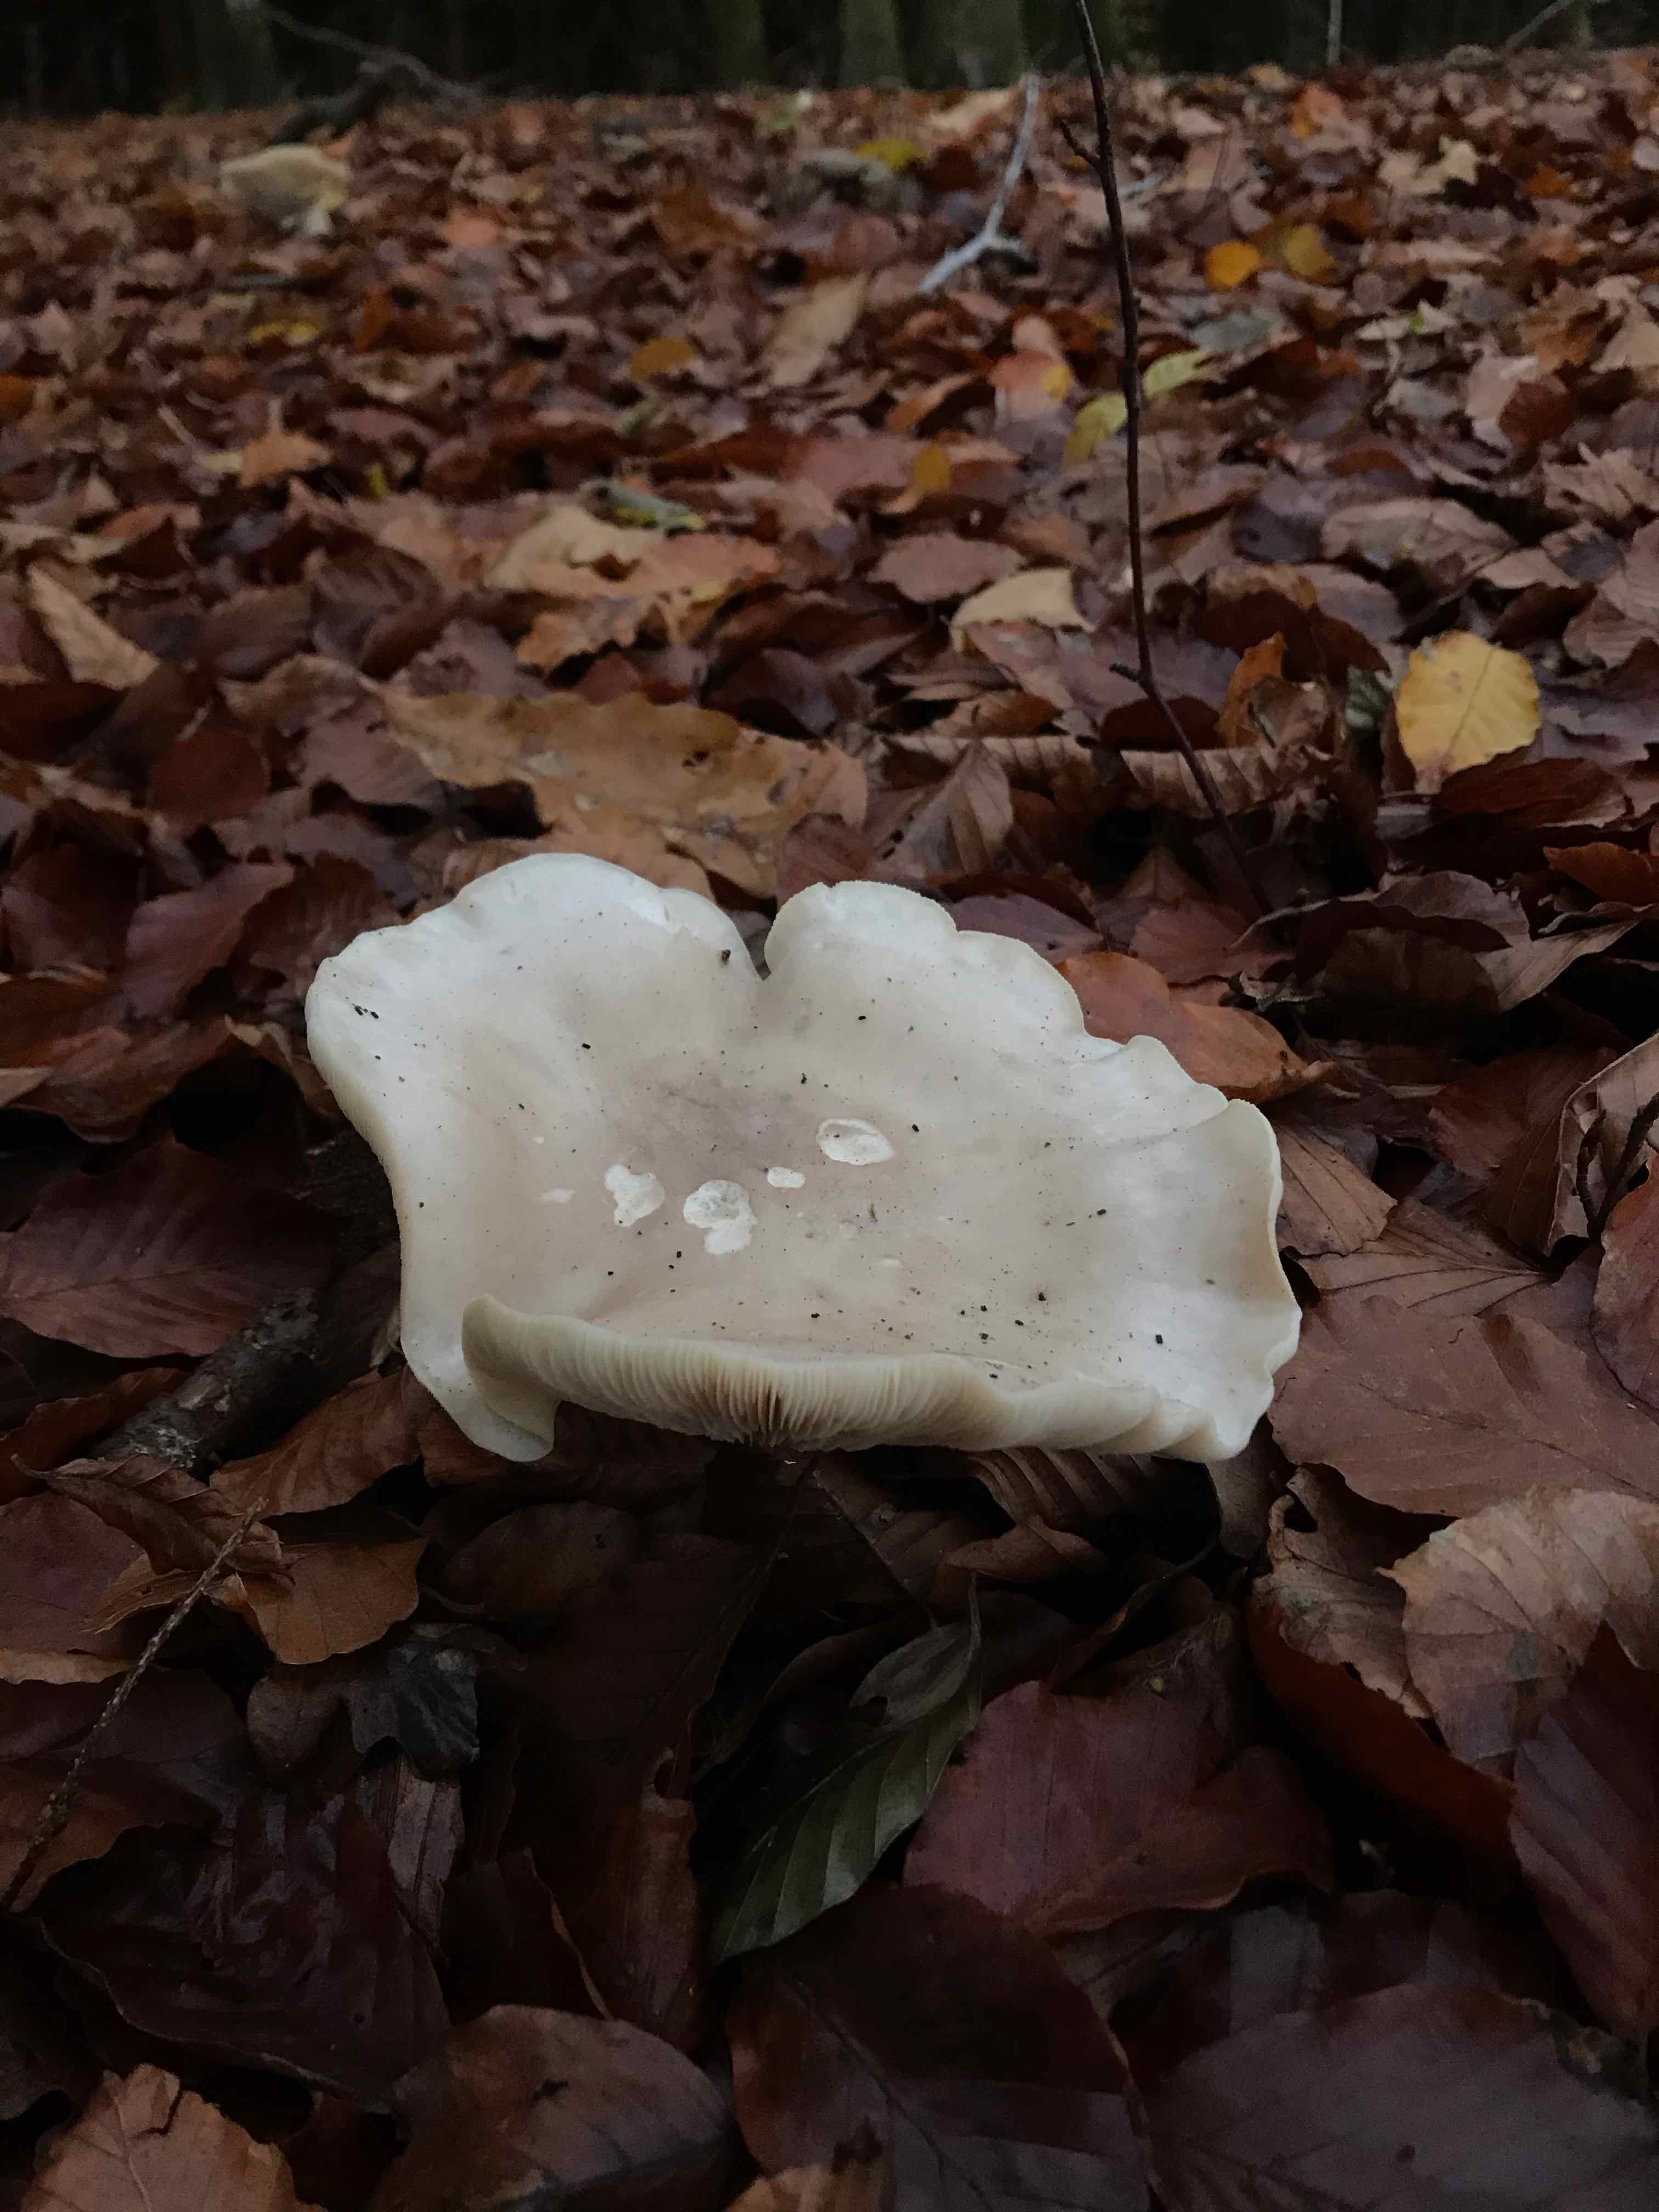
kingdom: Fungi
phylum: Basidiomycota
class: Agaricomycetes
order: Agaricales
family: Tricholomataceae
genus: Clitocybe
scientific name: Clitocybe nebularis
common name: tåge-tragthat
